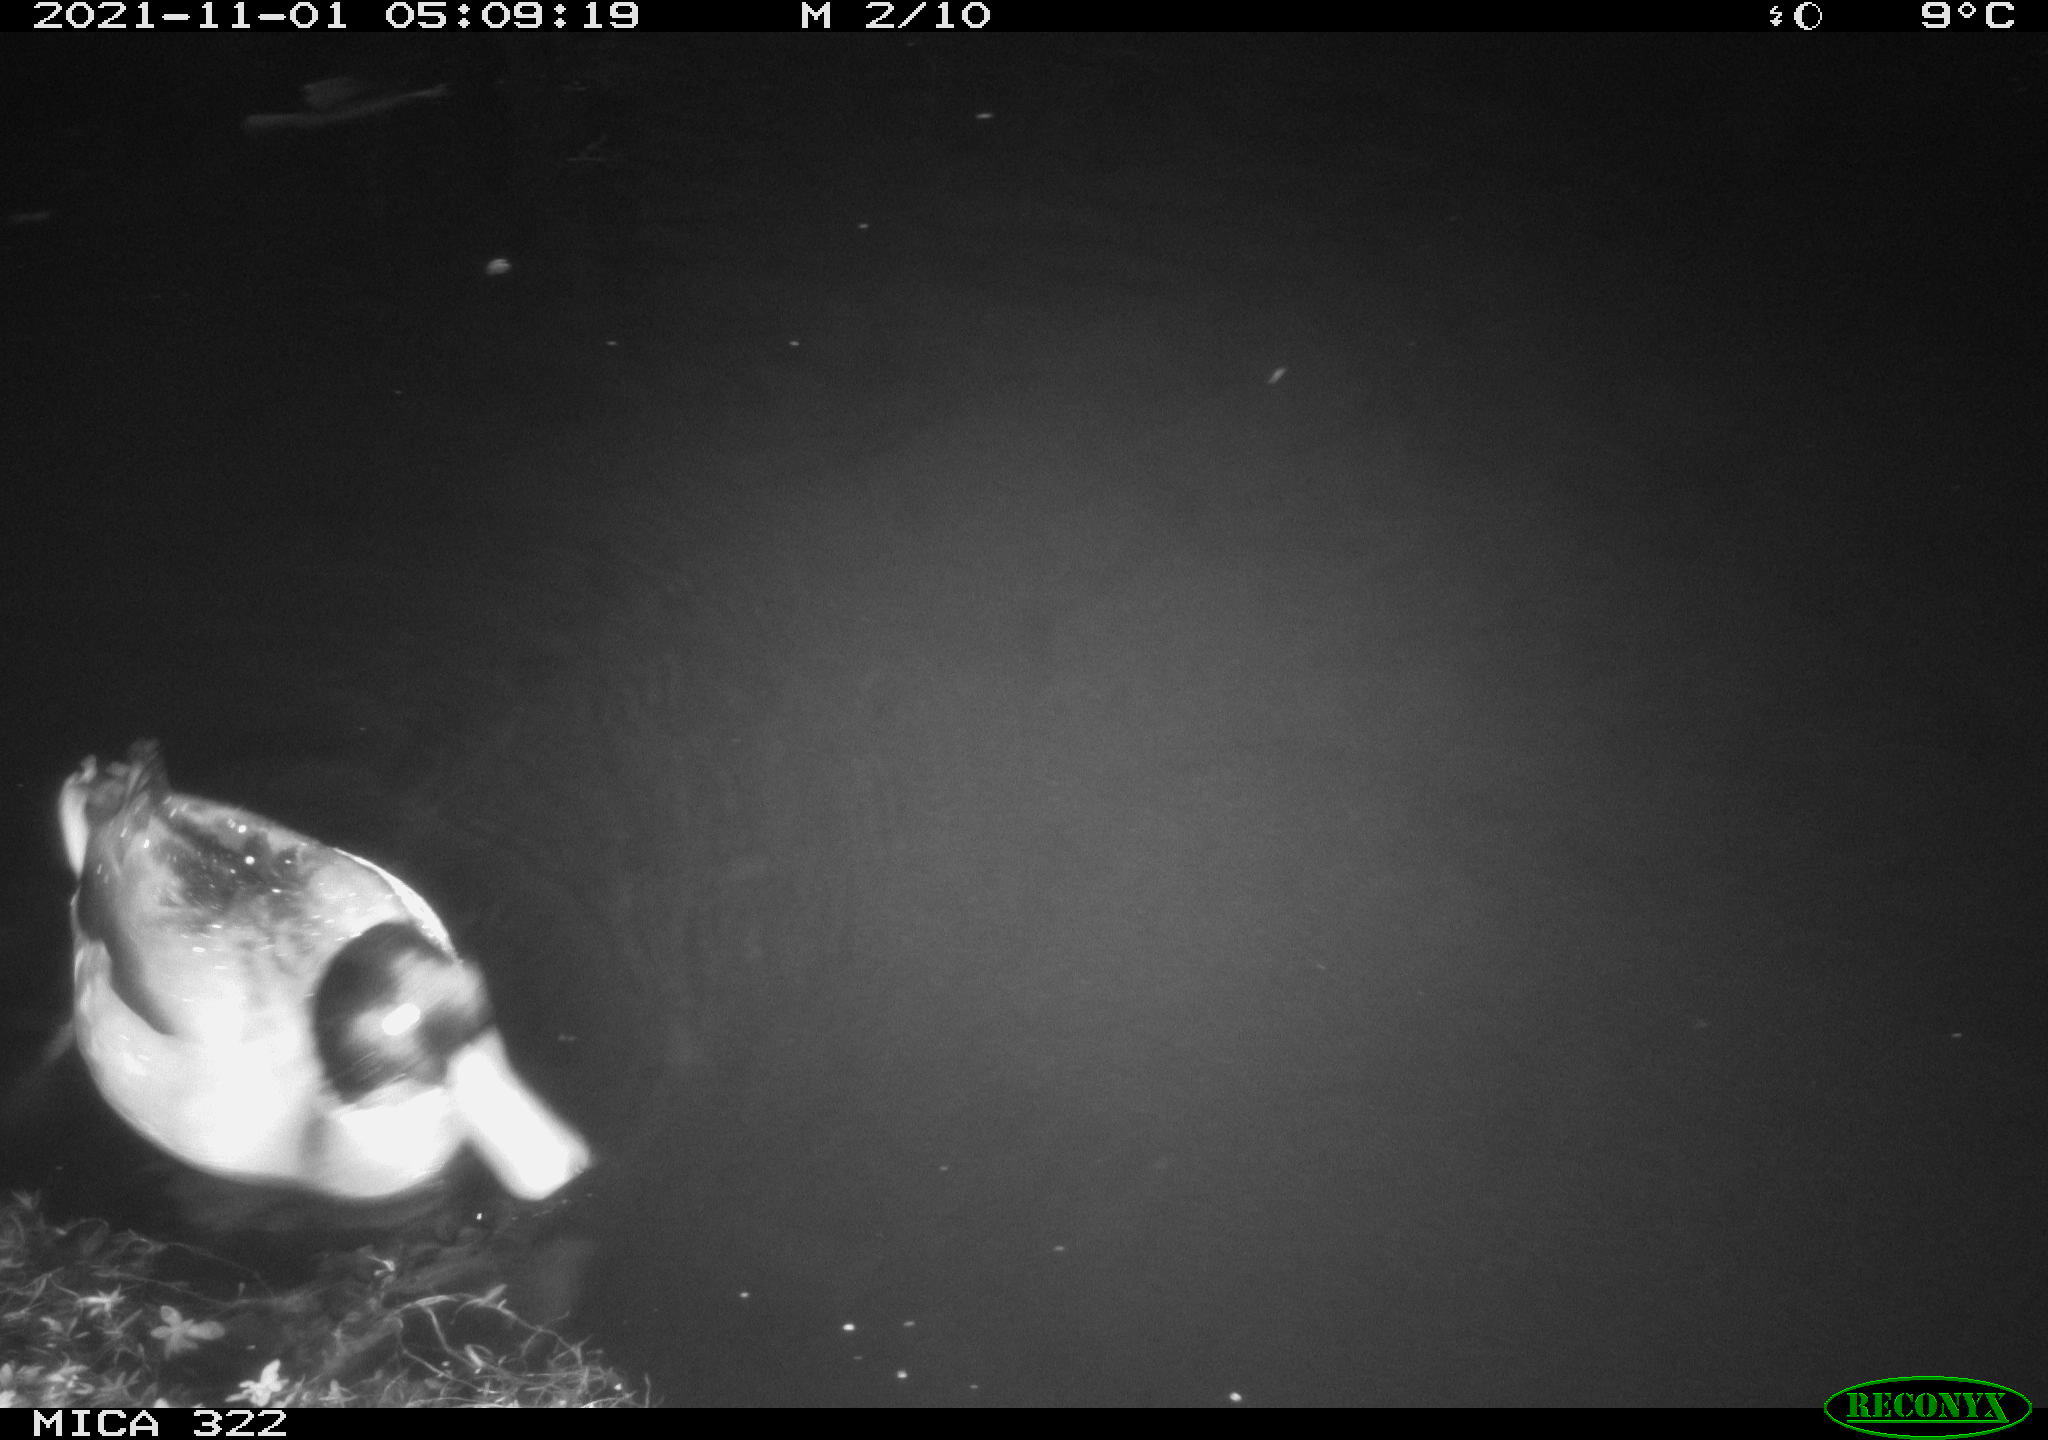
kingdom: Animalia
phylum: Chordata
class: Aves
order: Anseriformes
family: Anatidae
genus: Anas
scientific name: Anas platyrhynchos
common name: Mallard
